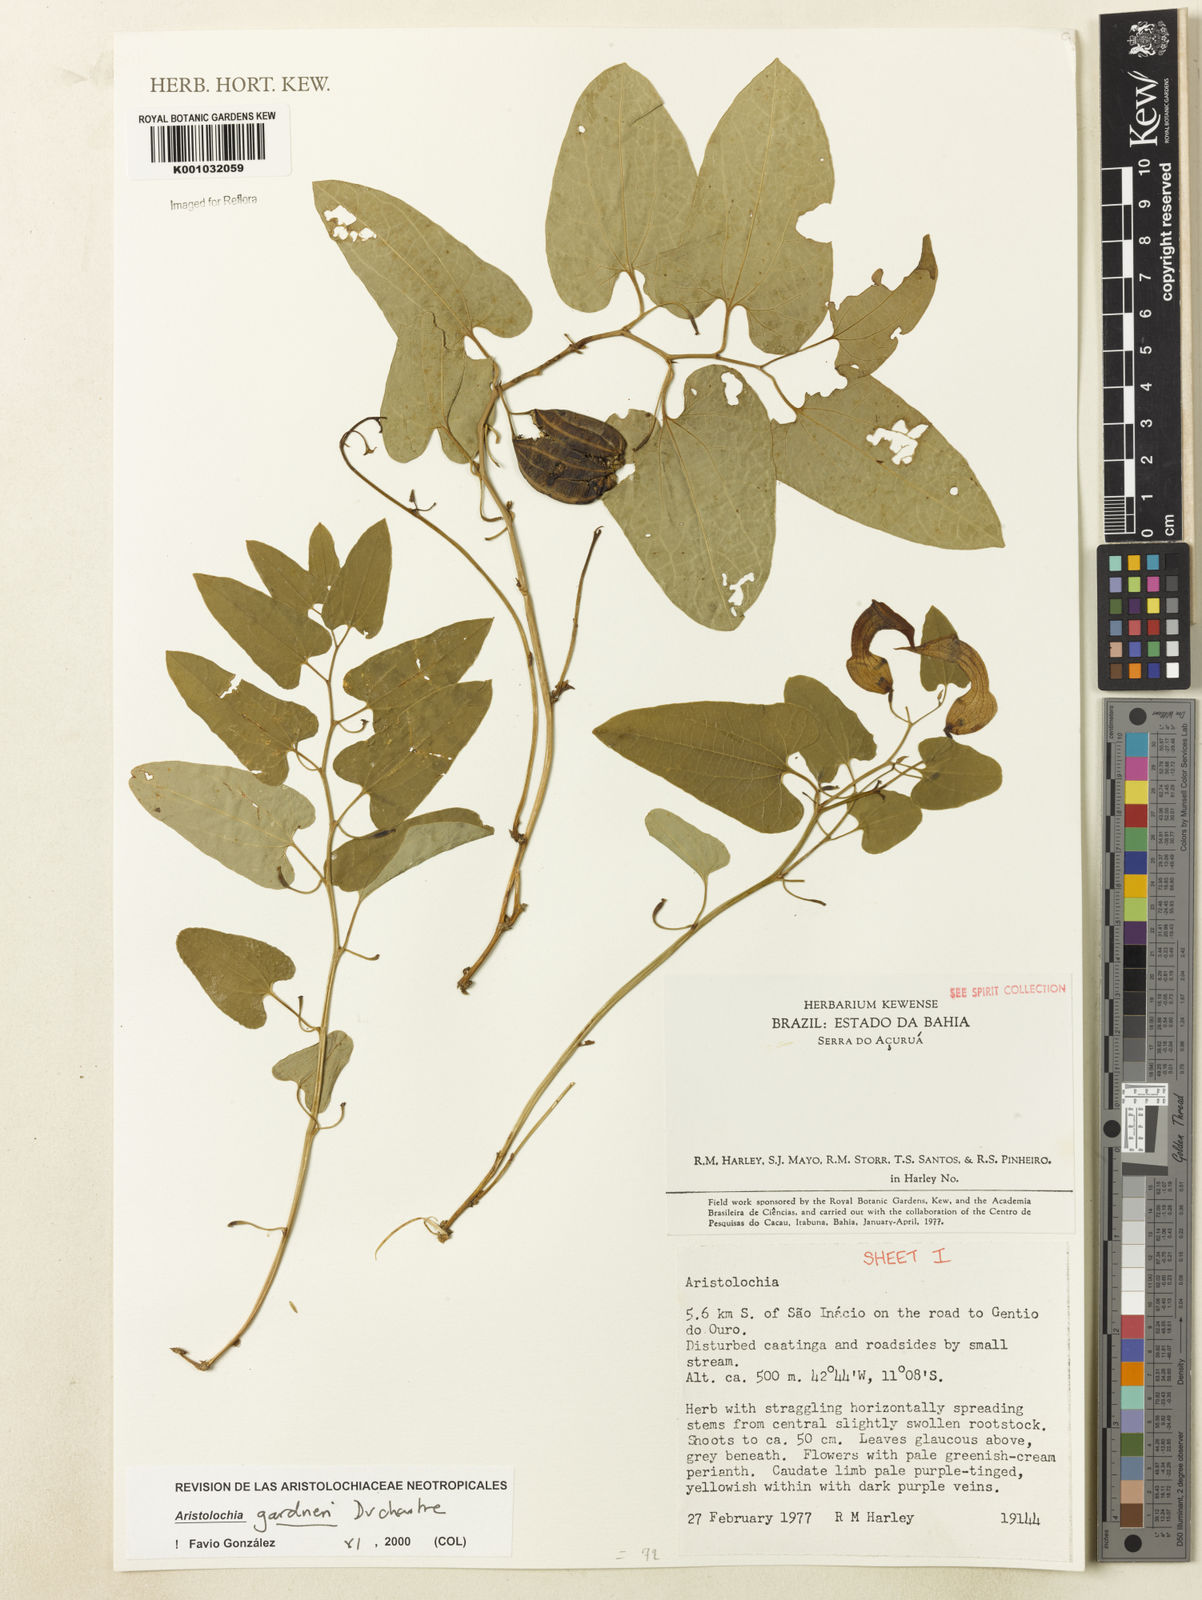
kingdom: Plantae
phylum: Tracheophyta
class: Magnoliopsida
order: Piperales
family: Aristolochiaceae
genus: Aristolochia
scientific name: Aristolochia gardneri
